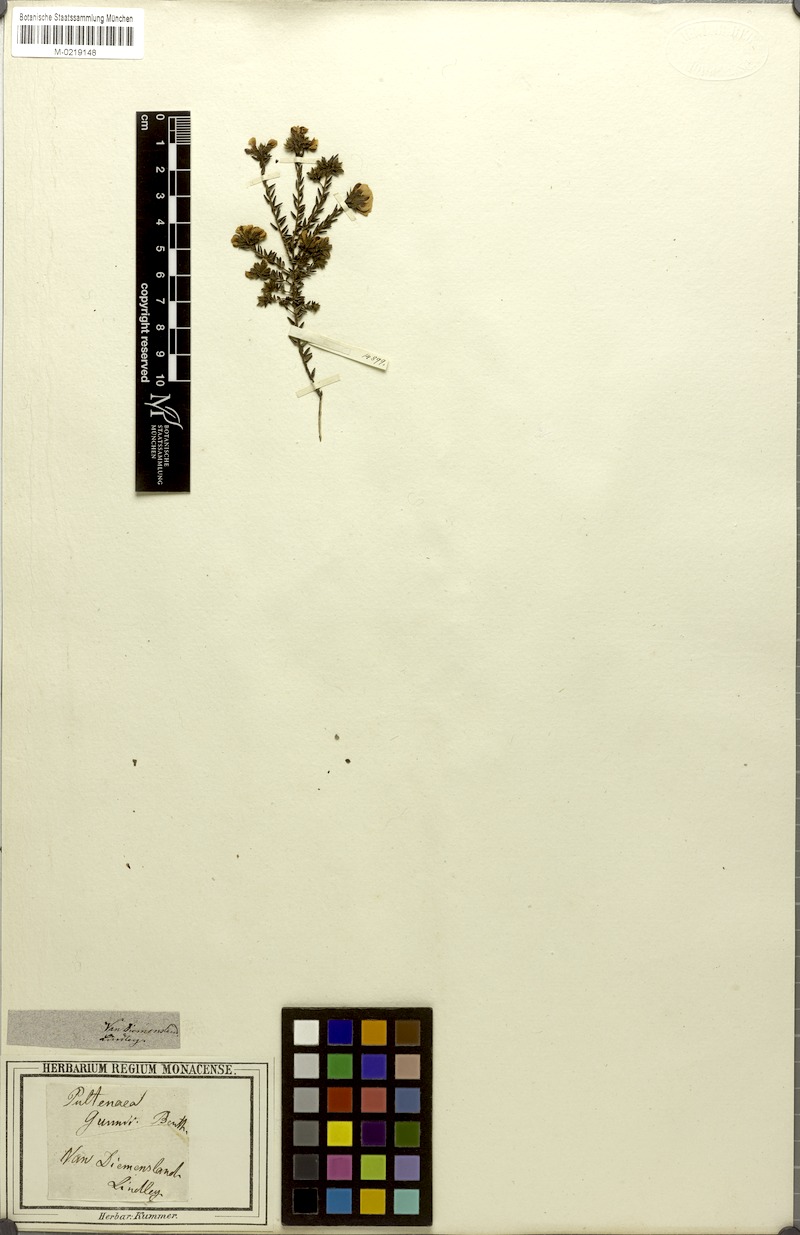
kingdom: Plantae
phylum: Tracheophyta
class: Magnoliopsida
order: Fabales
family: Fabaceae
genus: Pultenaea
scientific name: Pultenaea gunnii
